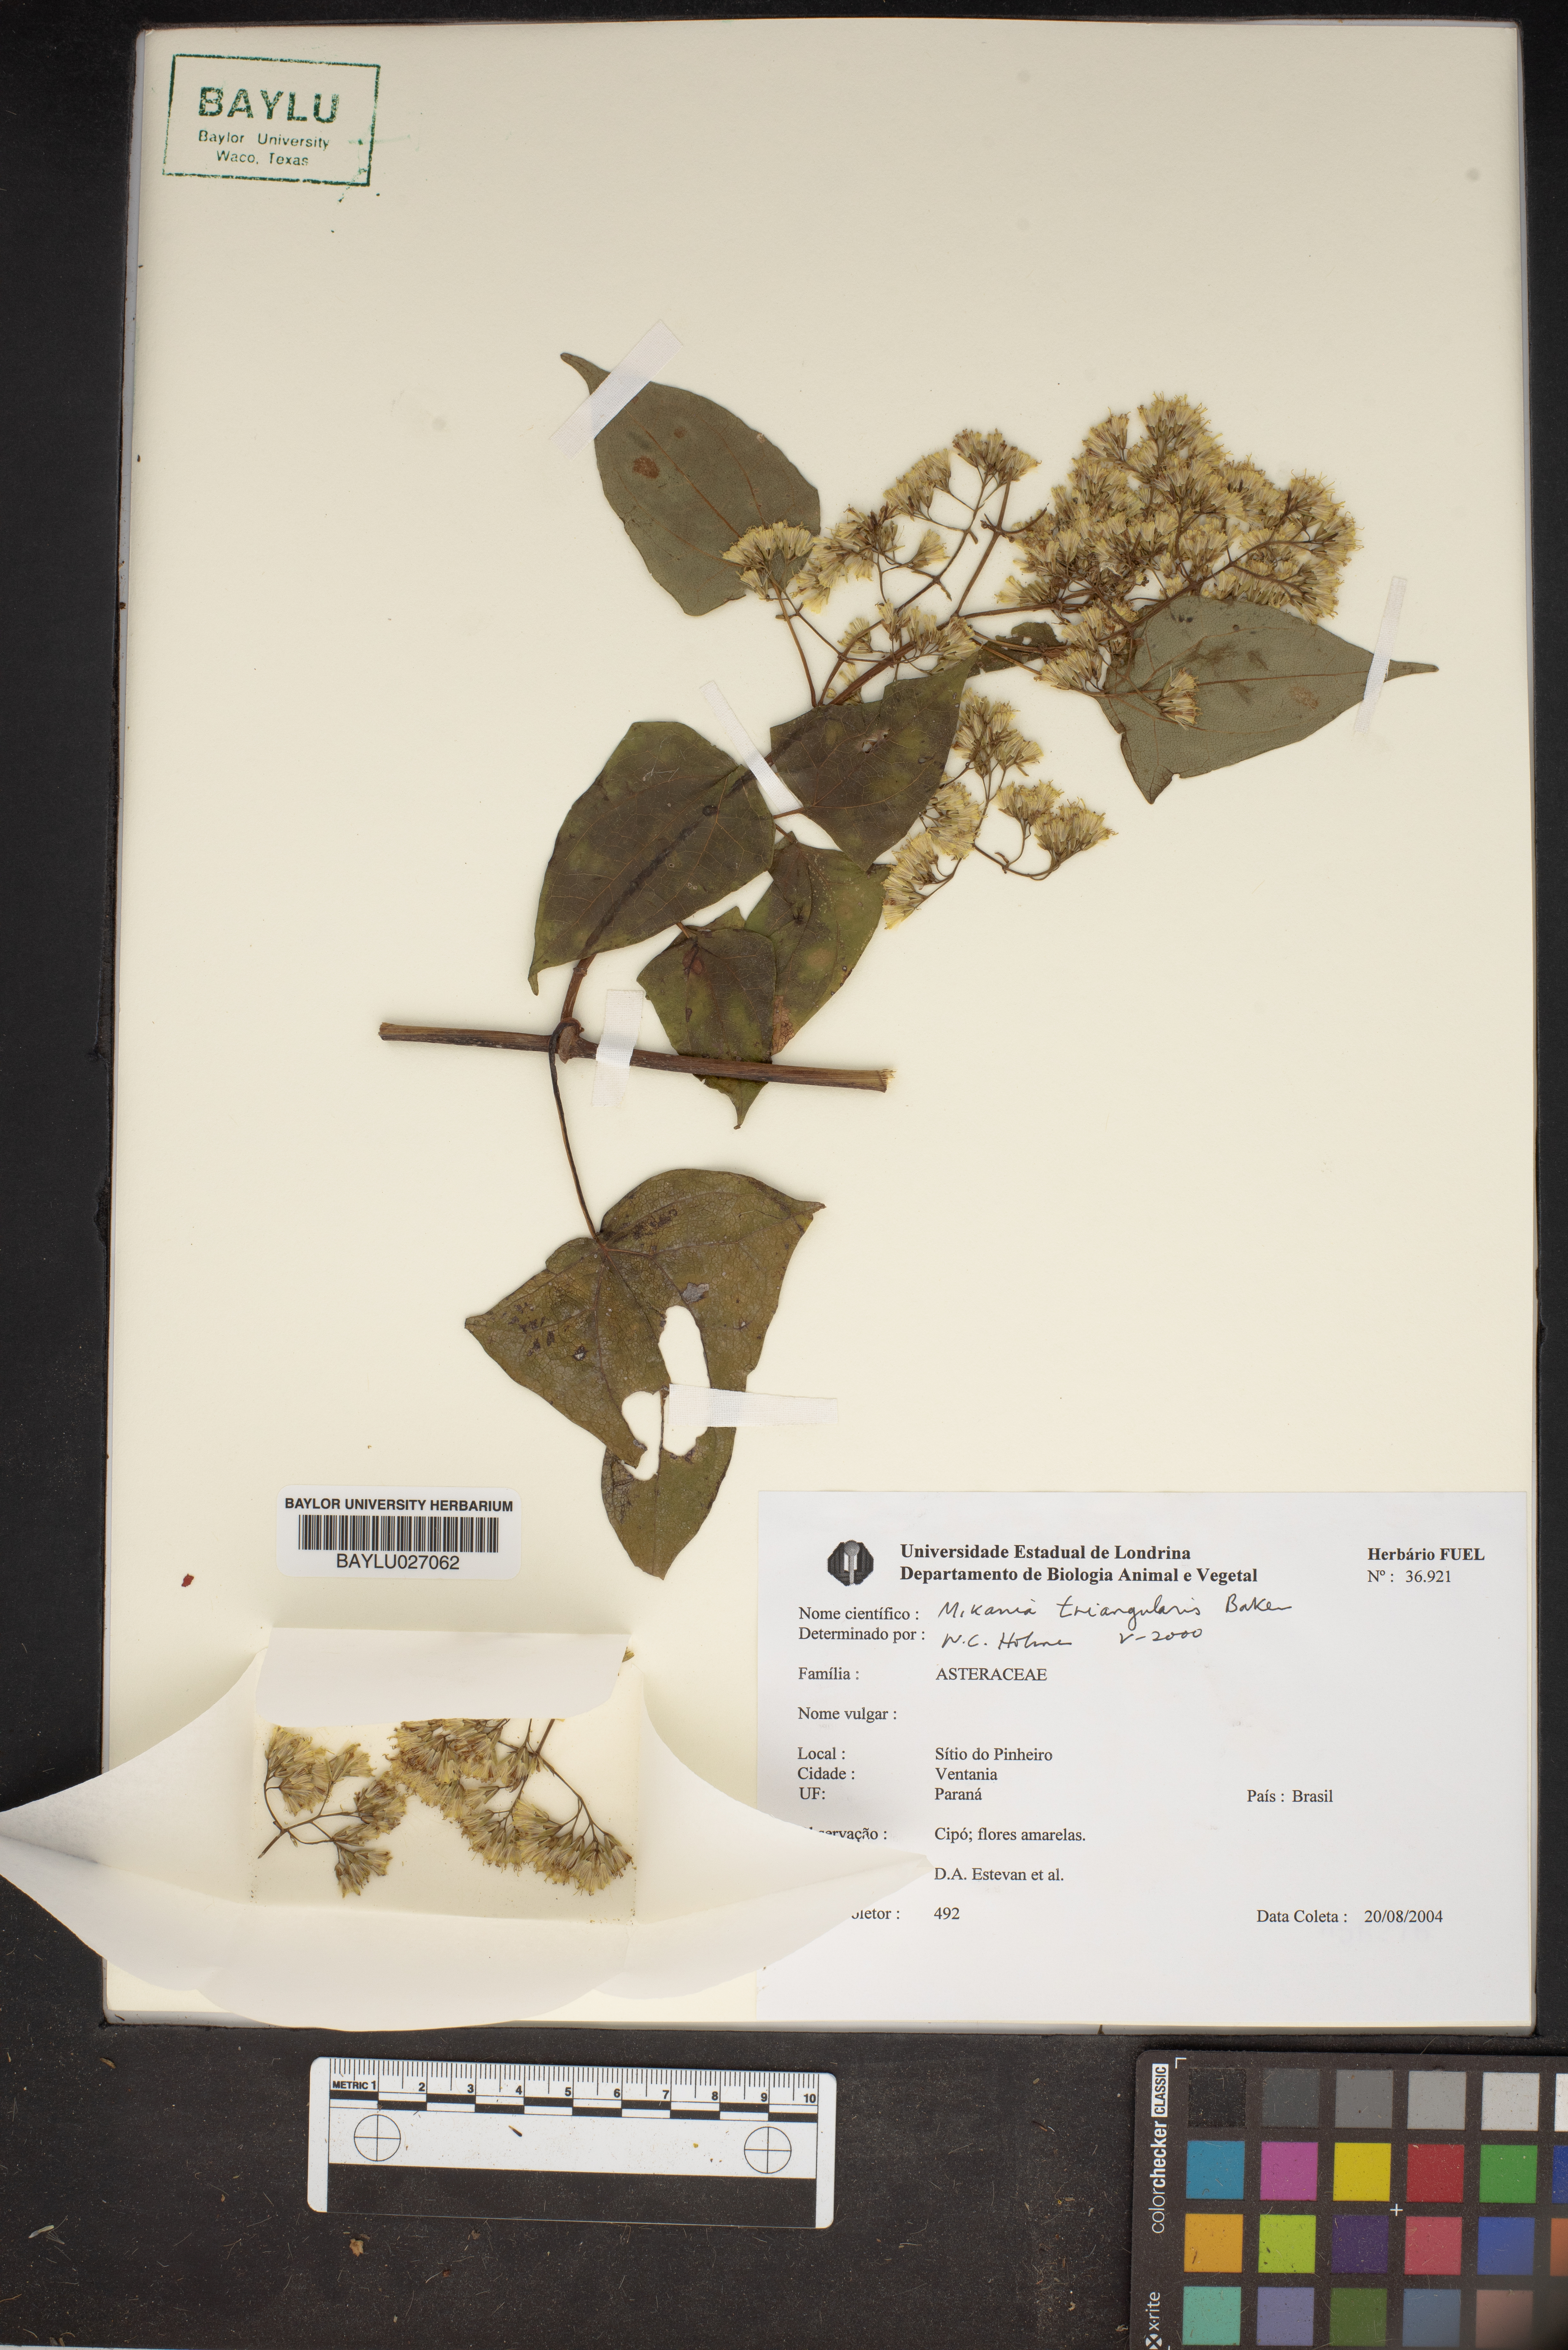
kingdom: Plantae
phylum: Tracheophyta
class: Magnoliopsida
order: Asterales
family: Asteraceae
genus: Mikania
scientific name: Mikania triangularis
